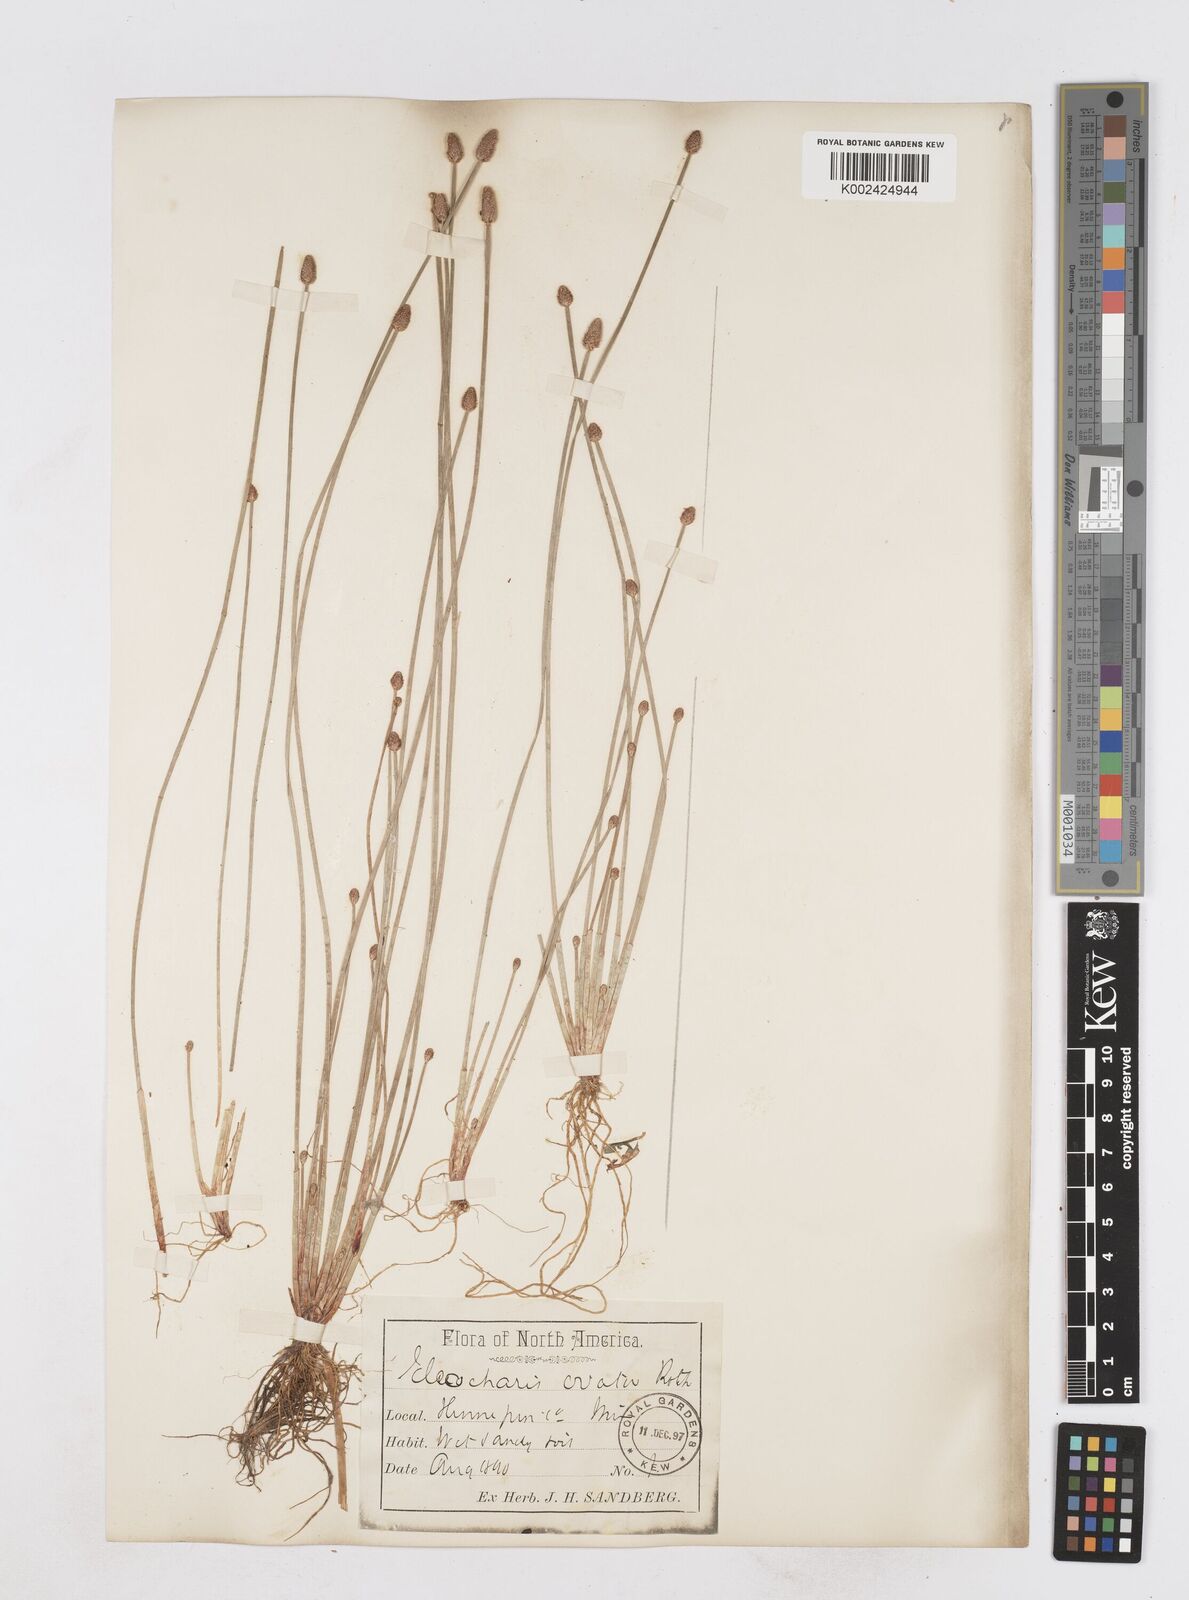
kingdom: Plantae
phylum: Tracheophyta
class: Liliopsida
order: Poales
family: Cyperaceae
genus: Eleocharis
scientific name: Eleocharis ovata
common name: Oval spike-rush
